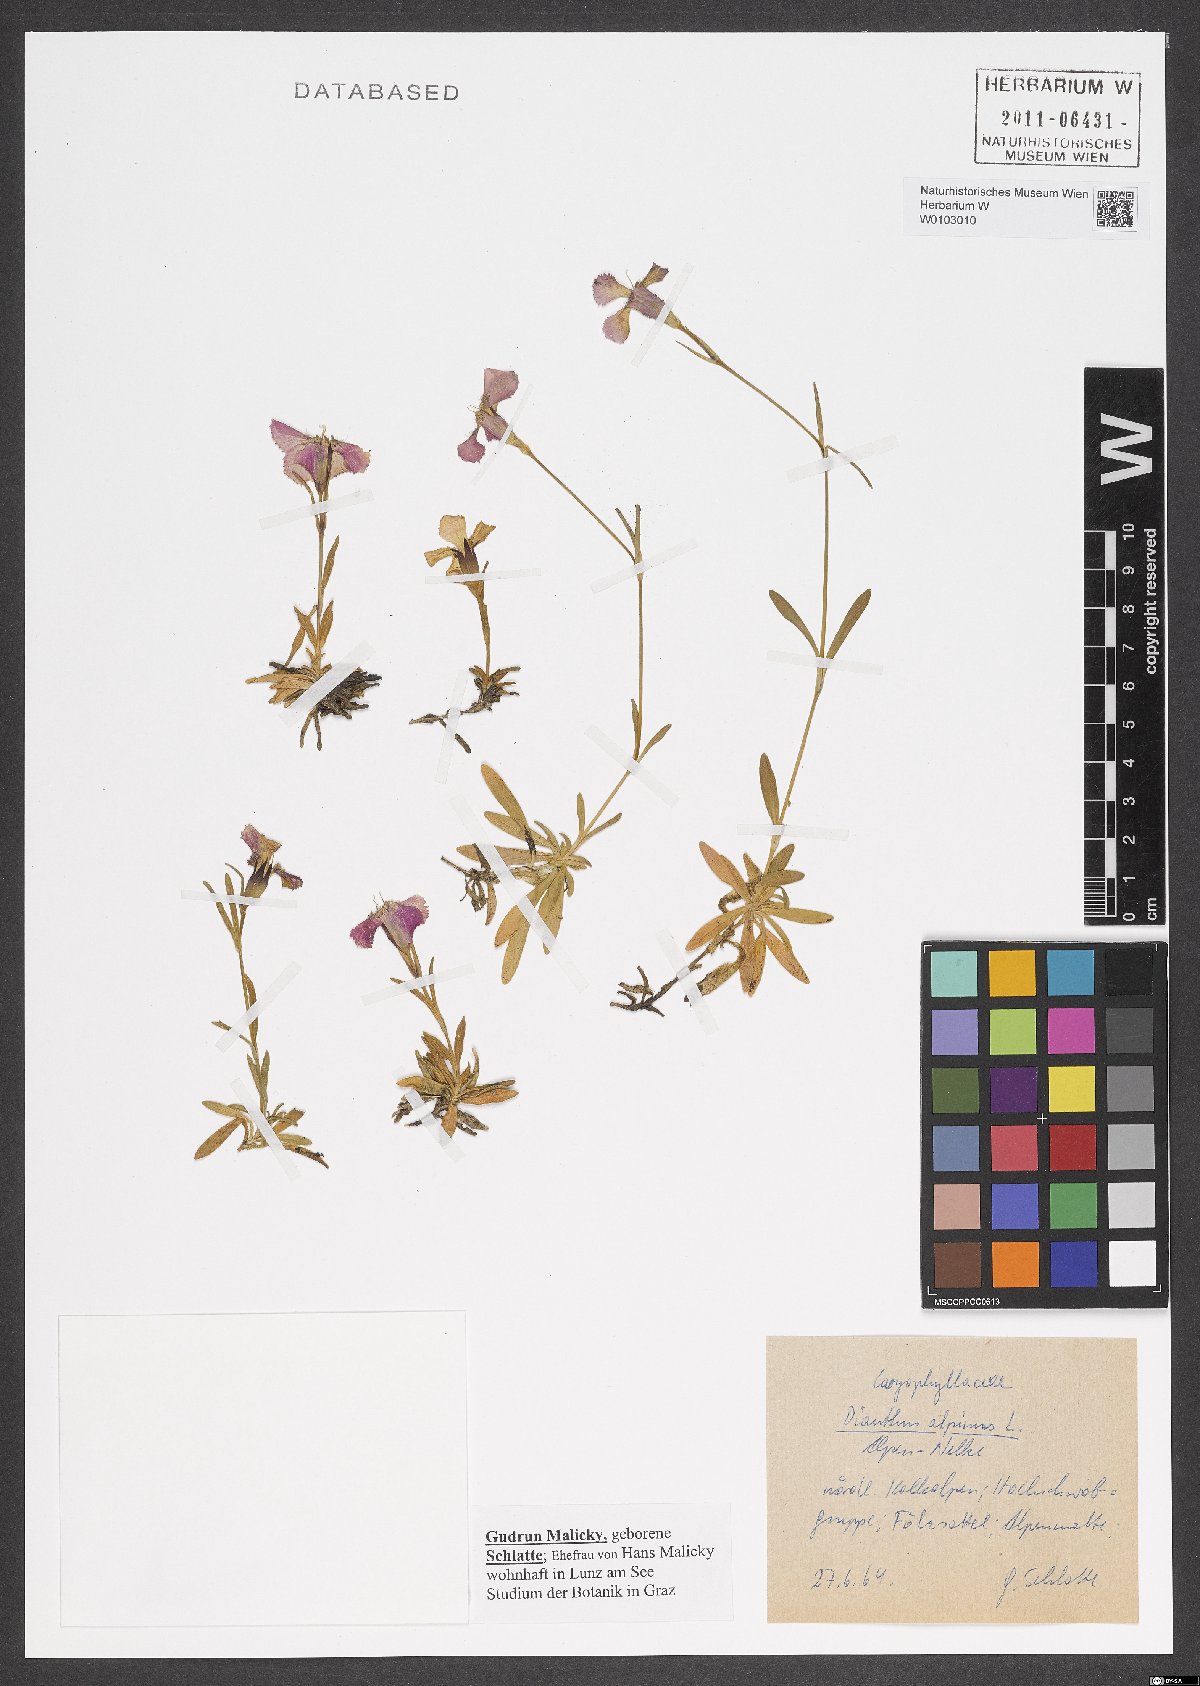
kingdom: Plantae
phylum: Tracheophyta
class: Magnoliopsida
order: Caryophyllales
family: Caryophyllaceae
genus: Dianthus
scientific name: Dianthus alpinus
